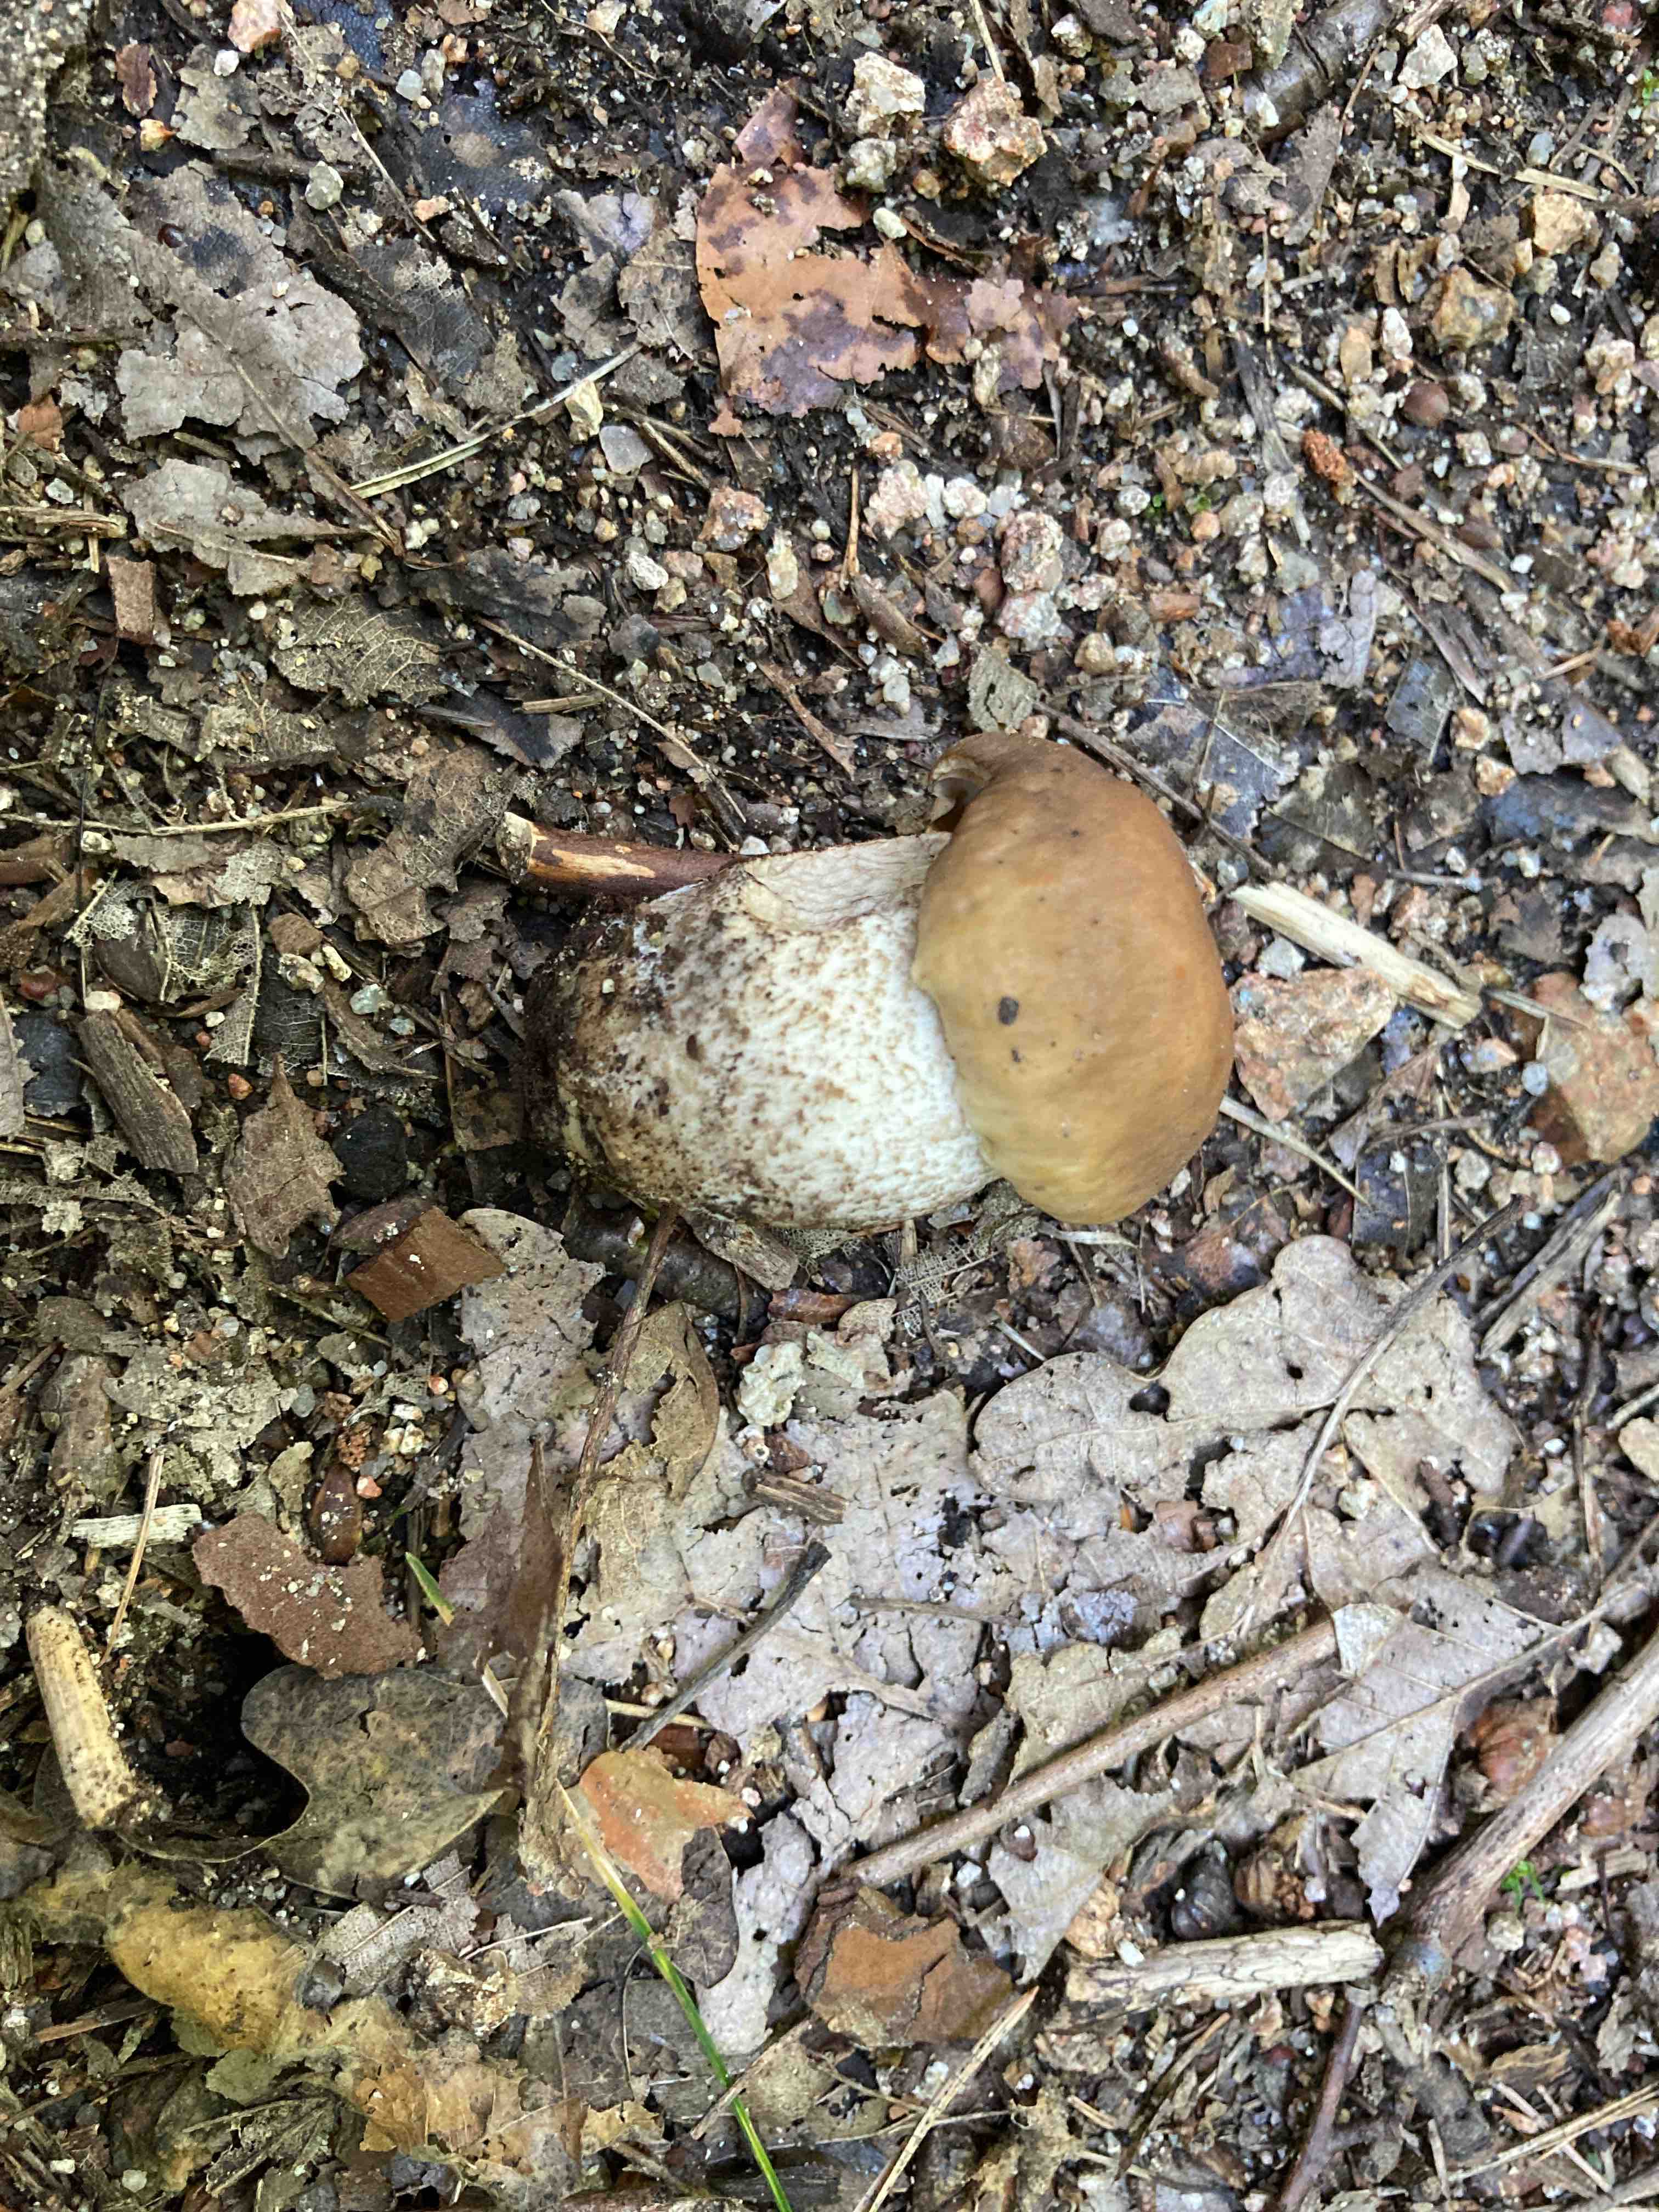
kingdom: Fungi
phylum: Basidiomycota
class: Agaricomycetes
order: Boletales
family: Boletaceae
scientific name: Boletaceae
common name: rørhatfamilien
